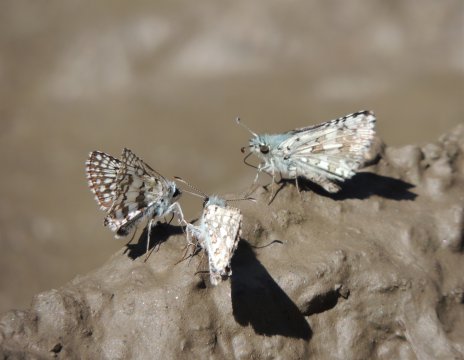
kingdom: Animalia
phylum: Arthropoda
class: Insecta
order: Lepidoptera
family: Hesperiidae
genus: Pyrgus
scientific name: Pyrgus communis
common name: Common Checkered-Skipper
